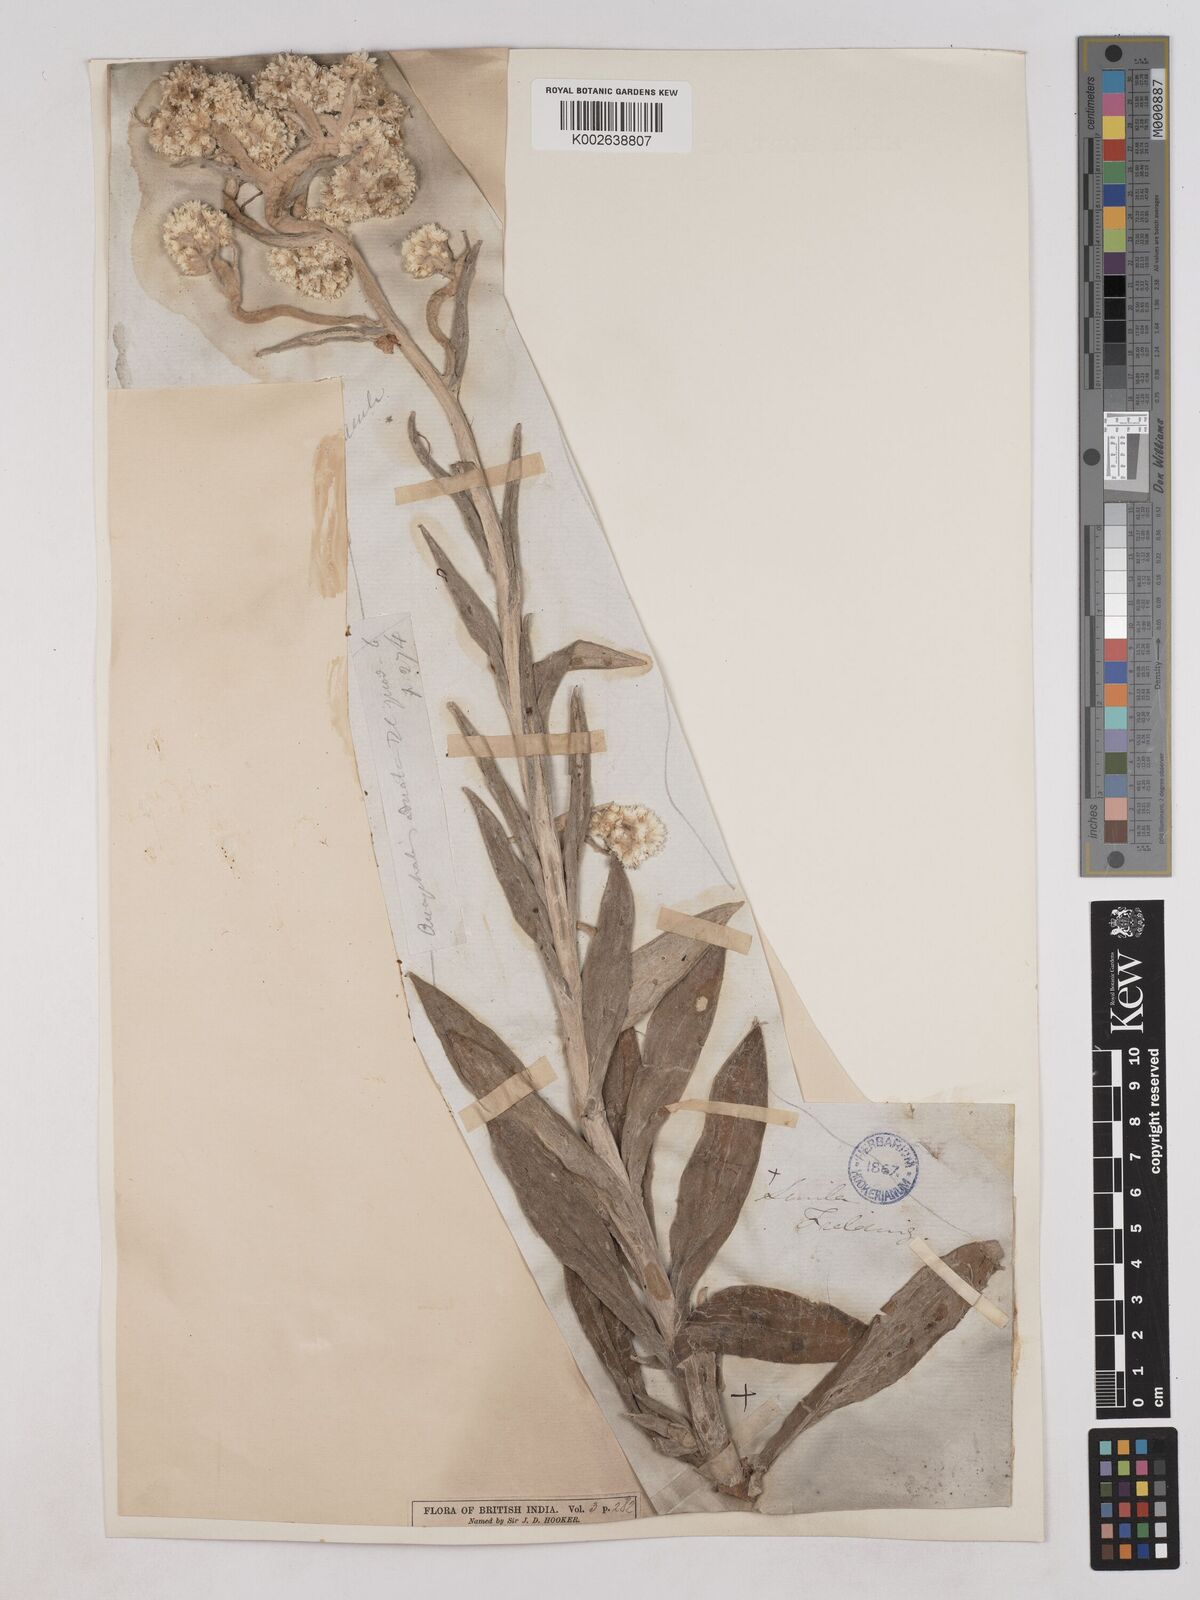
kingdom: Plantae
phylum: Tracheophyta
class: Magnoliopsida
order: Asterales
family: Asteraceae
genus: Pseudognaphalium
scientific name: Pseudognaphalium adnatum
